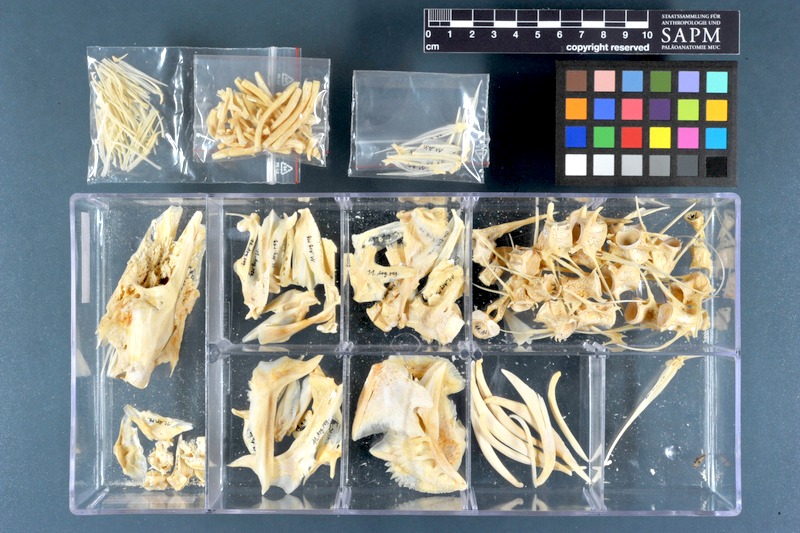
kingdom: Animalia
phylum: Chordata
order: Perciformes
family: Sciaenidae
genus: Argyrosomus
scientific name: Argyrosomus regius
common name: Meagre
